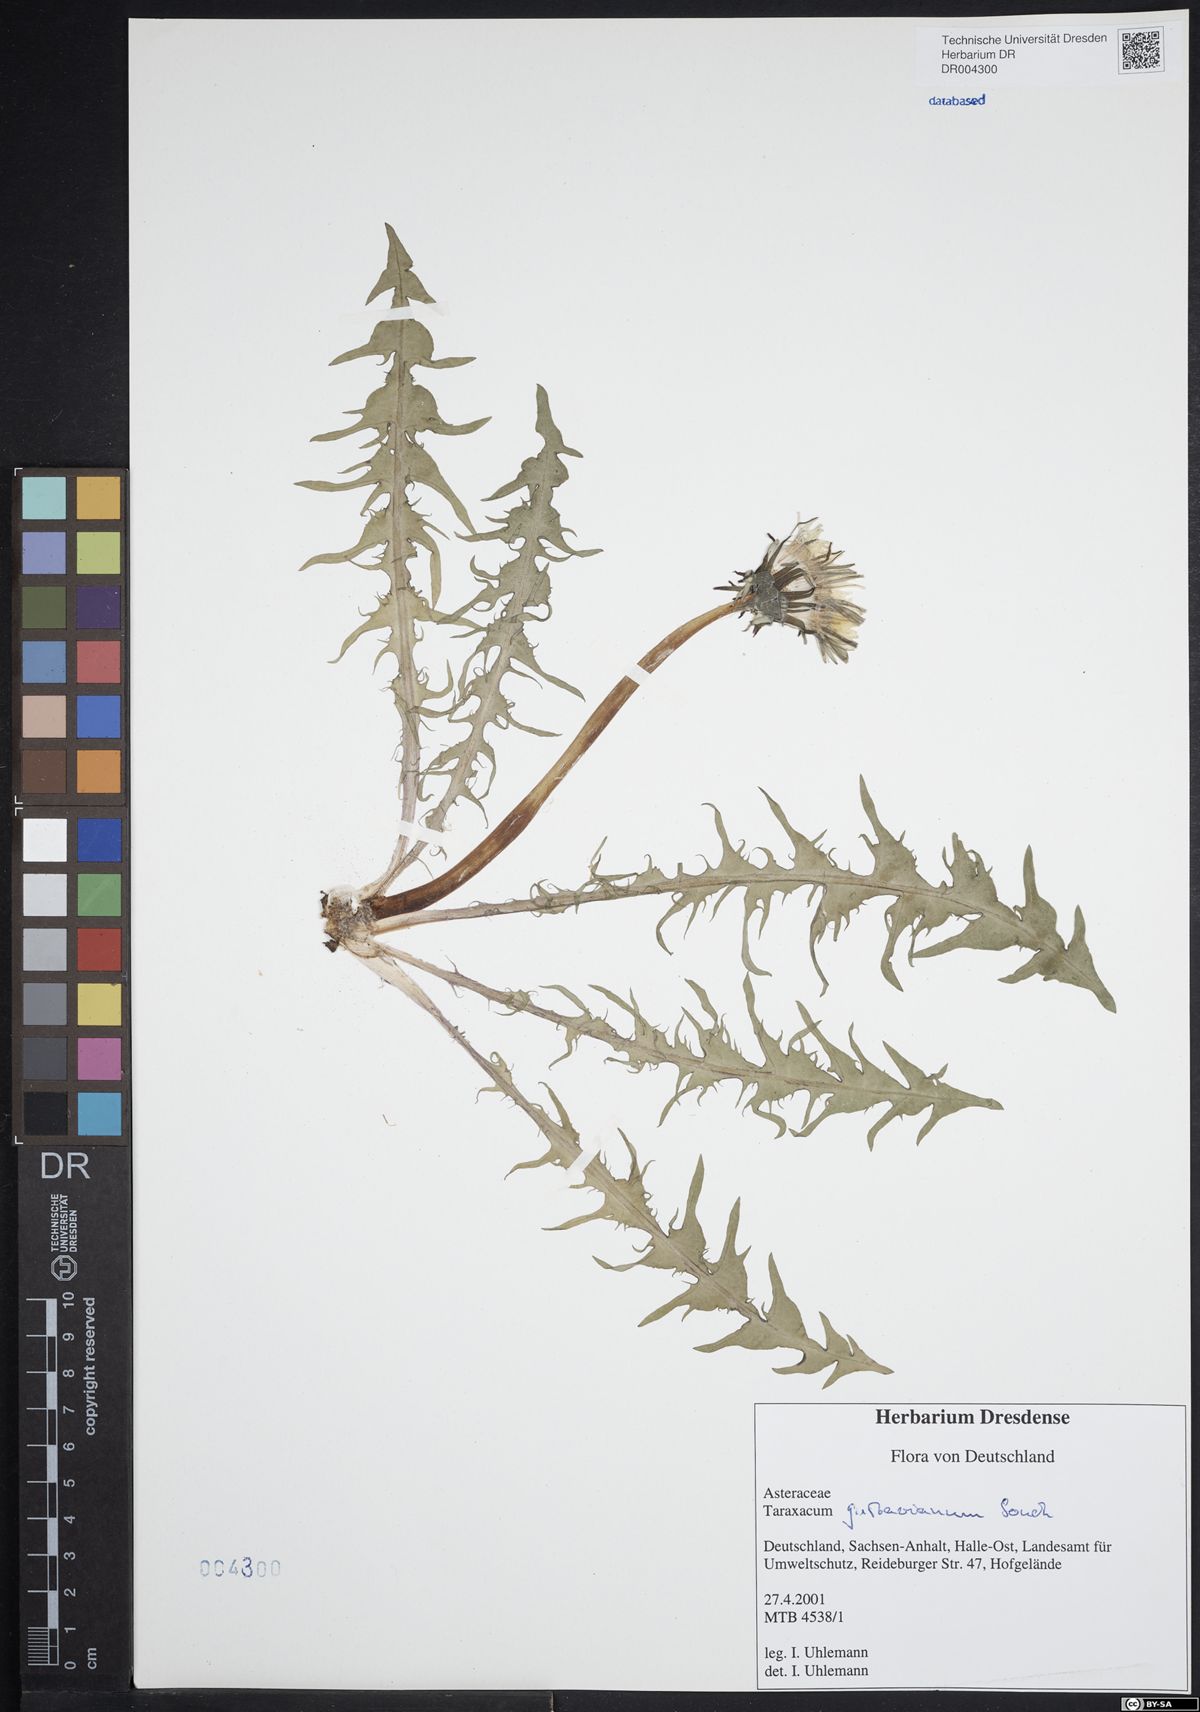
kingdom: Plantae
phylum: Tracheophyta
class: Magnoliopsida
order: Asterales
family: Asteraceae
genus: Taraxacum
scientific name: Taraxacum gustavianum
